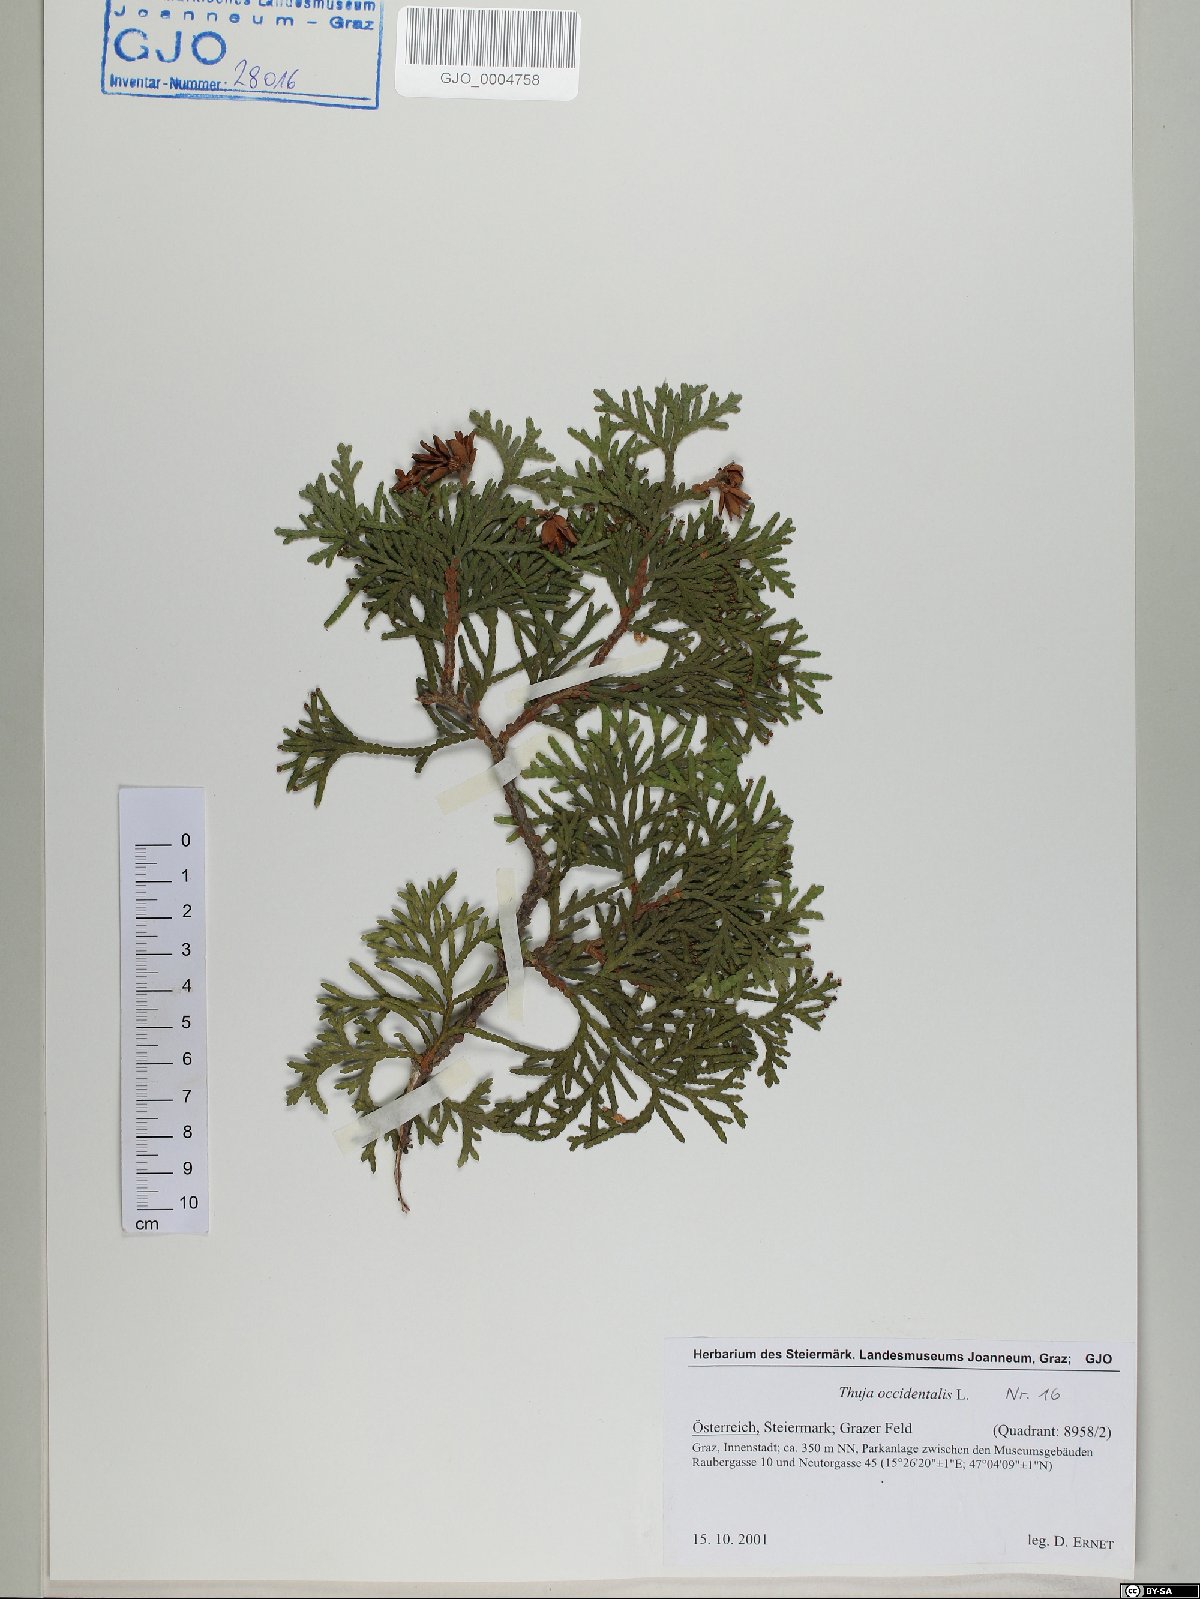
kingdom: Plantae
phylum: Tracheophyta
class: Pinopsida
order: Pinales
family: Cupressaceae
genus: Thuja
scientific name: Thuja occidentalis
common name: Northern white-cedar
